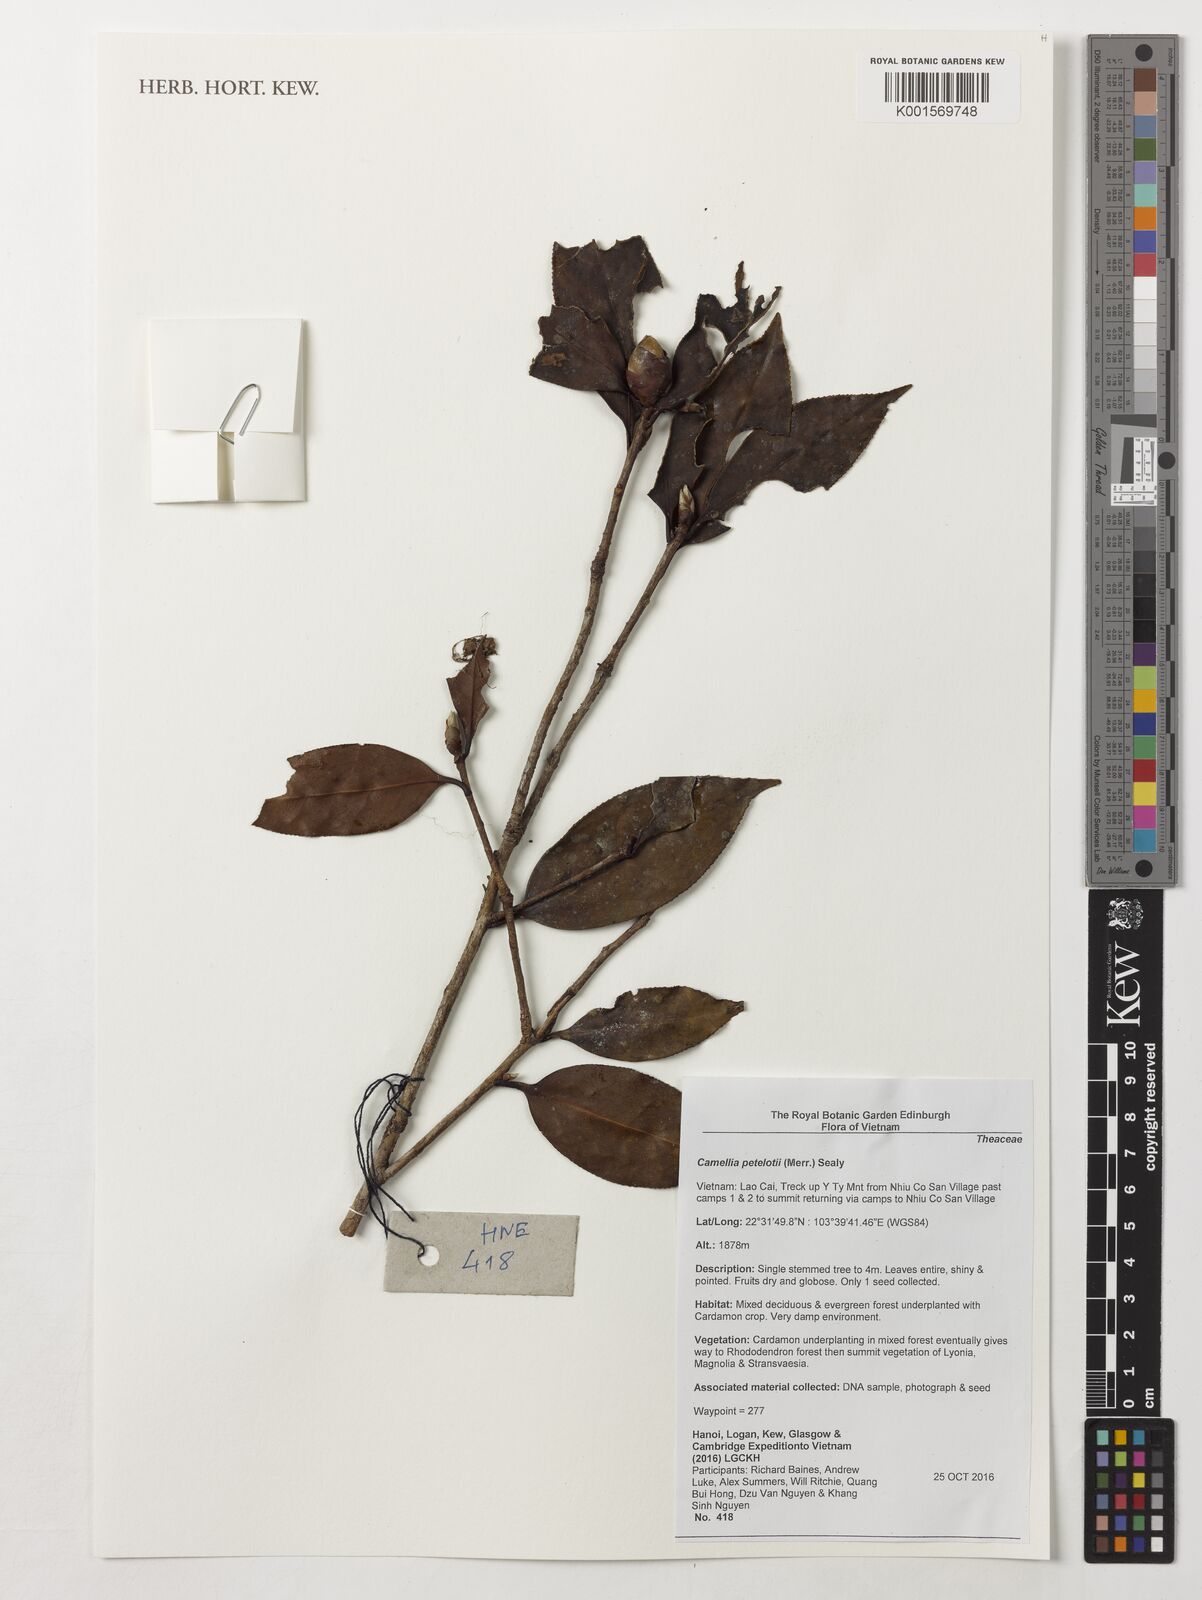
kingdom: Plantae
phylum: Tracheophyta
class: Magnoliopsida
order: Ericales
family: Theaceae
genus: Camellia
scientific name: Camellia petelotii
